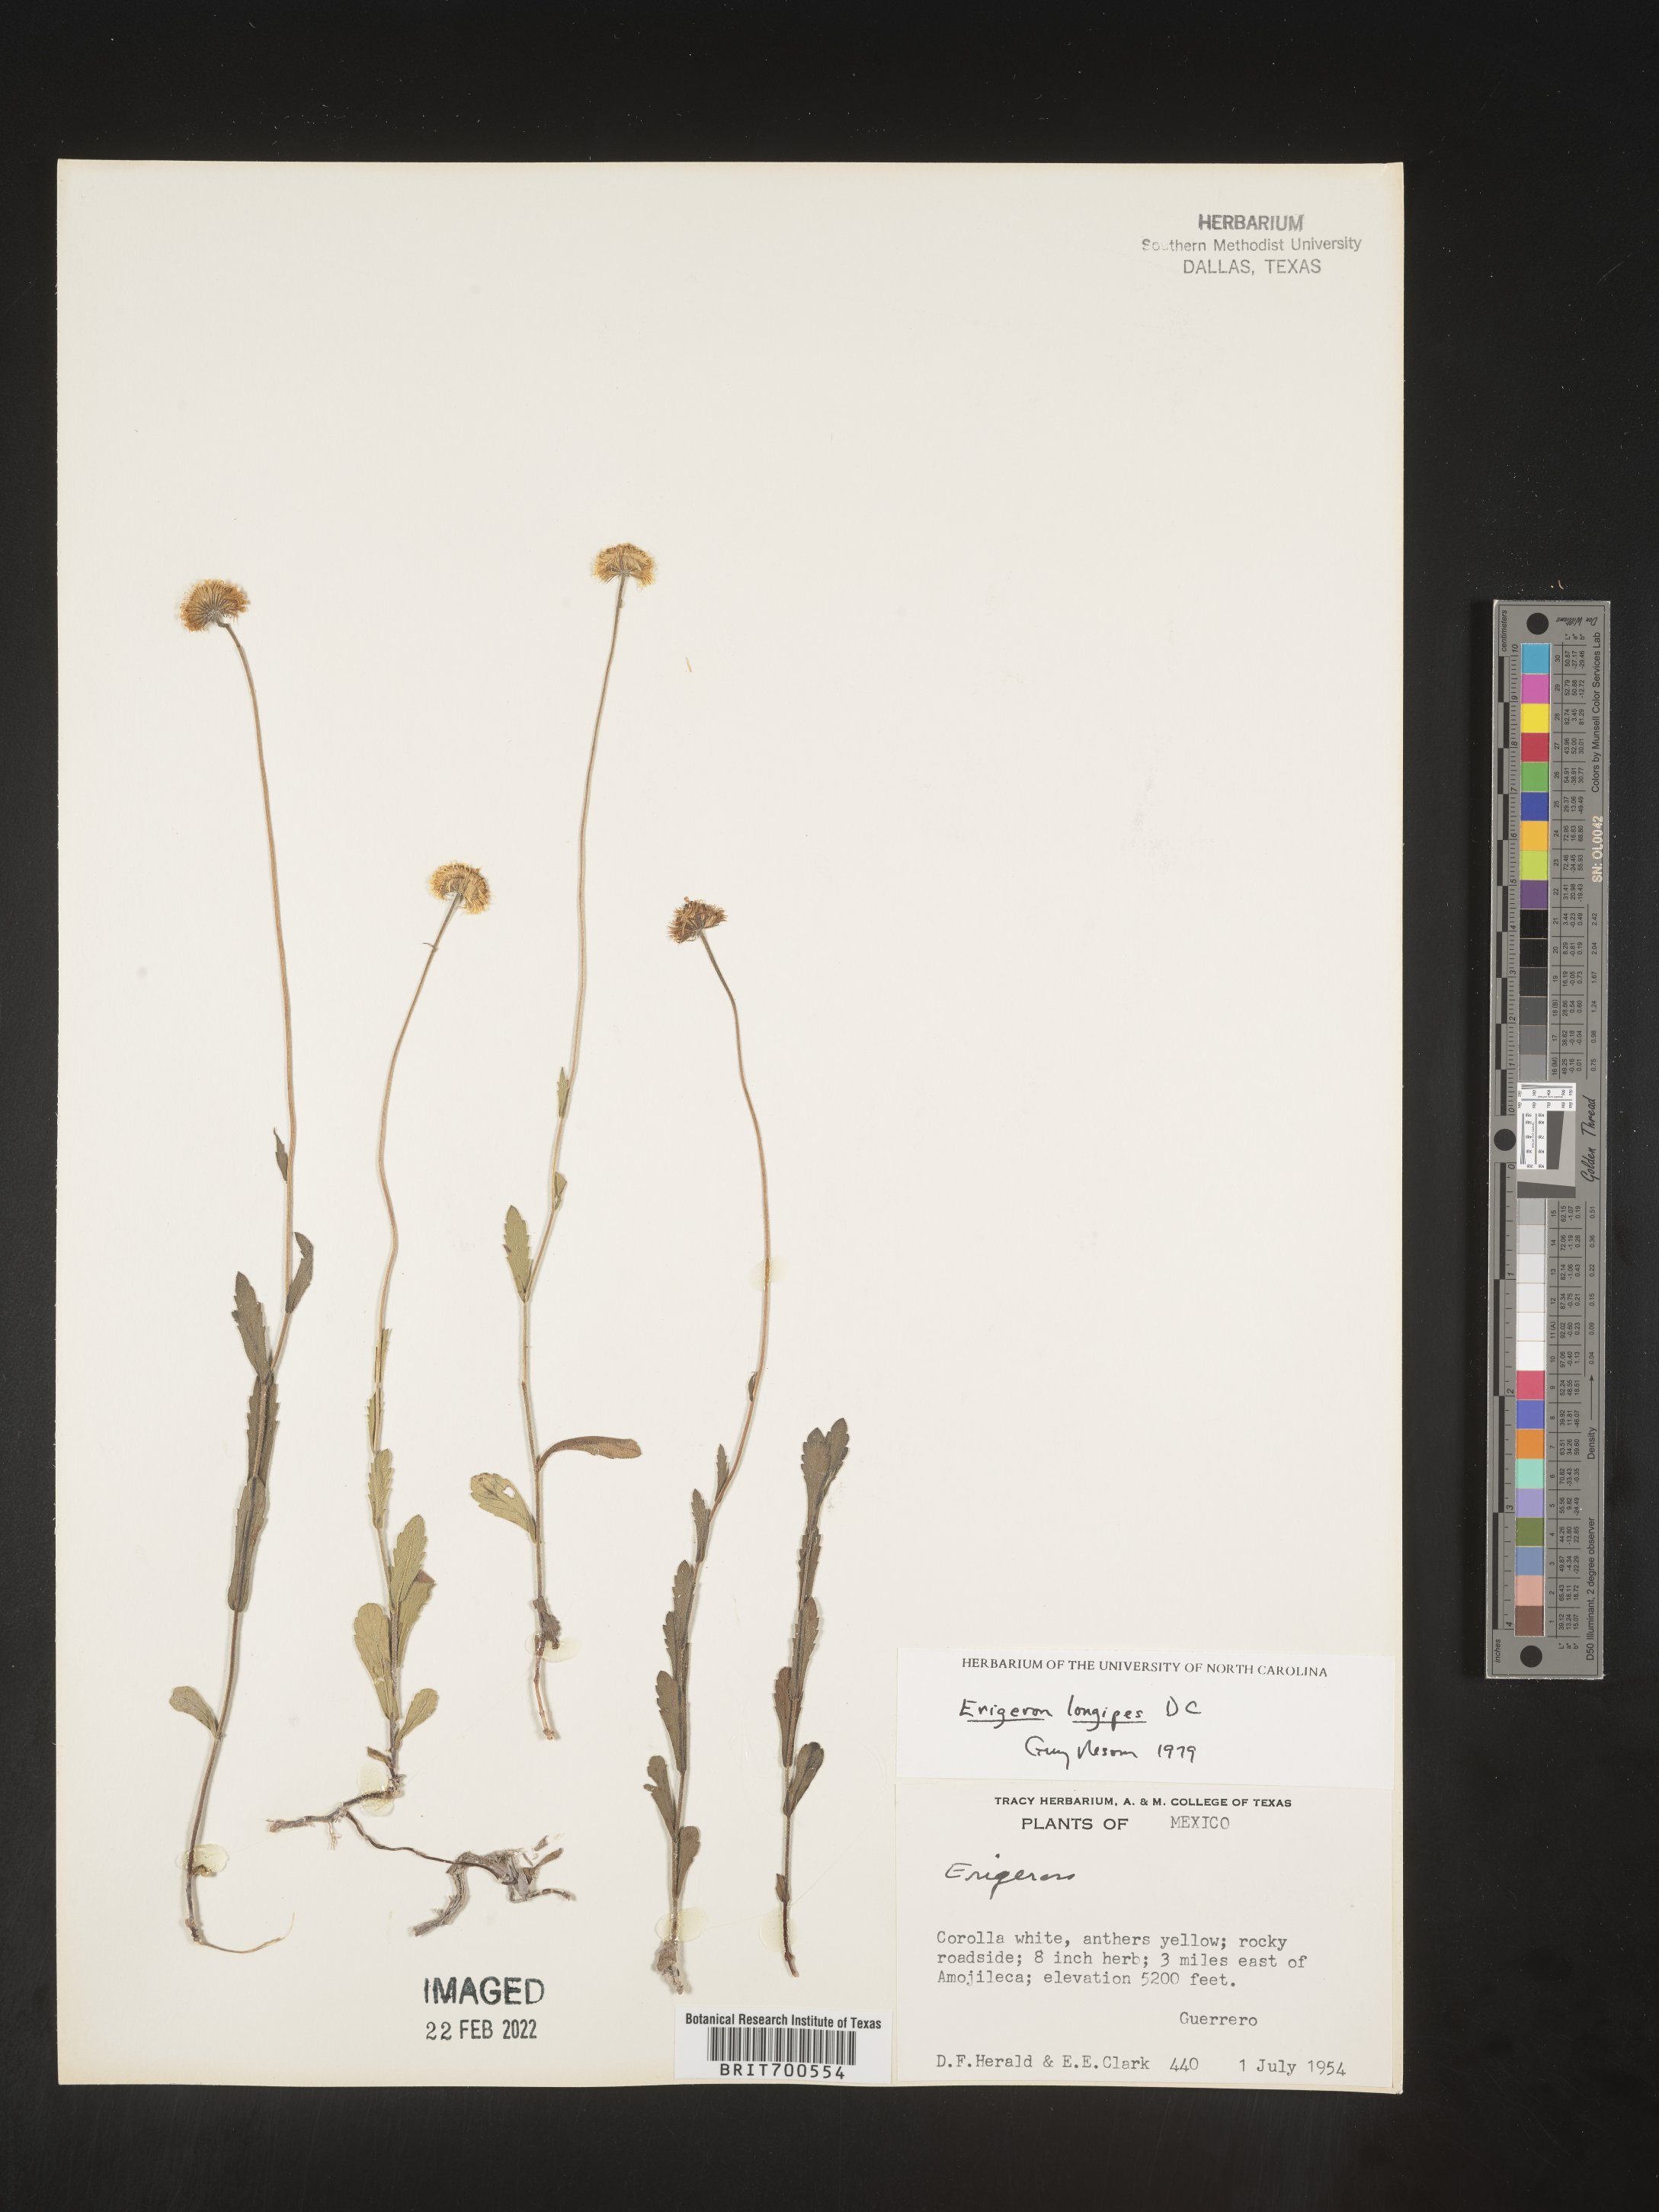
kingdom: Plantae
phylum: Tracheophyta
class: Magnoliopsida
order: Asterales
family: Asteraceae
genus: Erigeron
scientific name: Erigeron longipes
